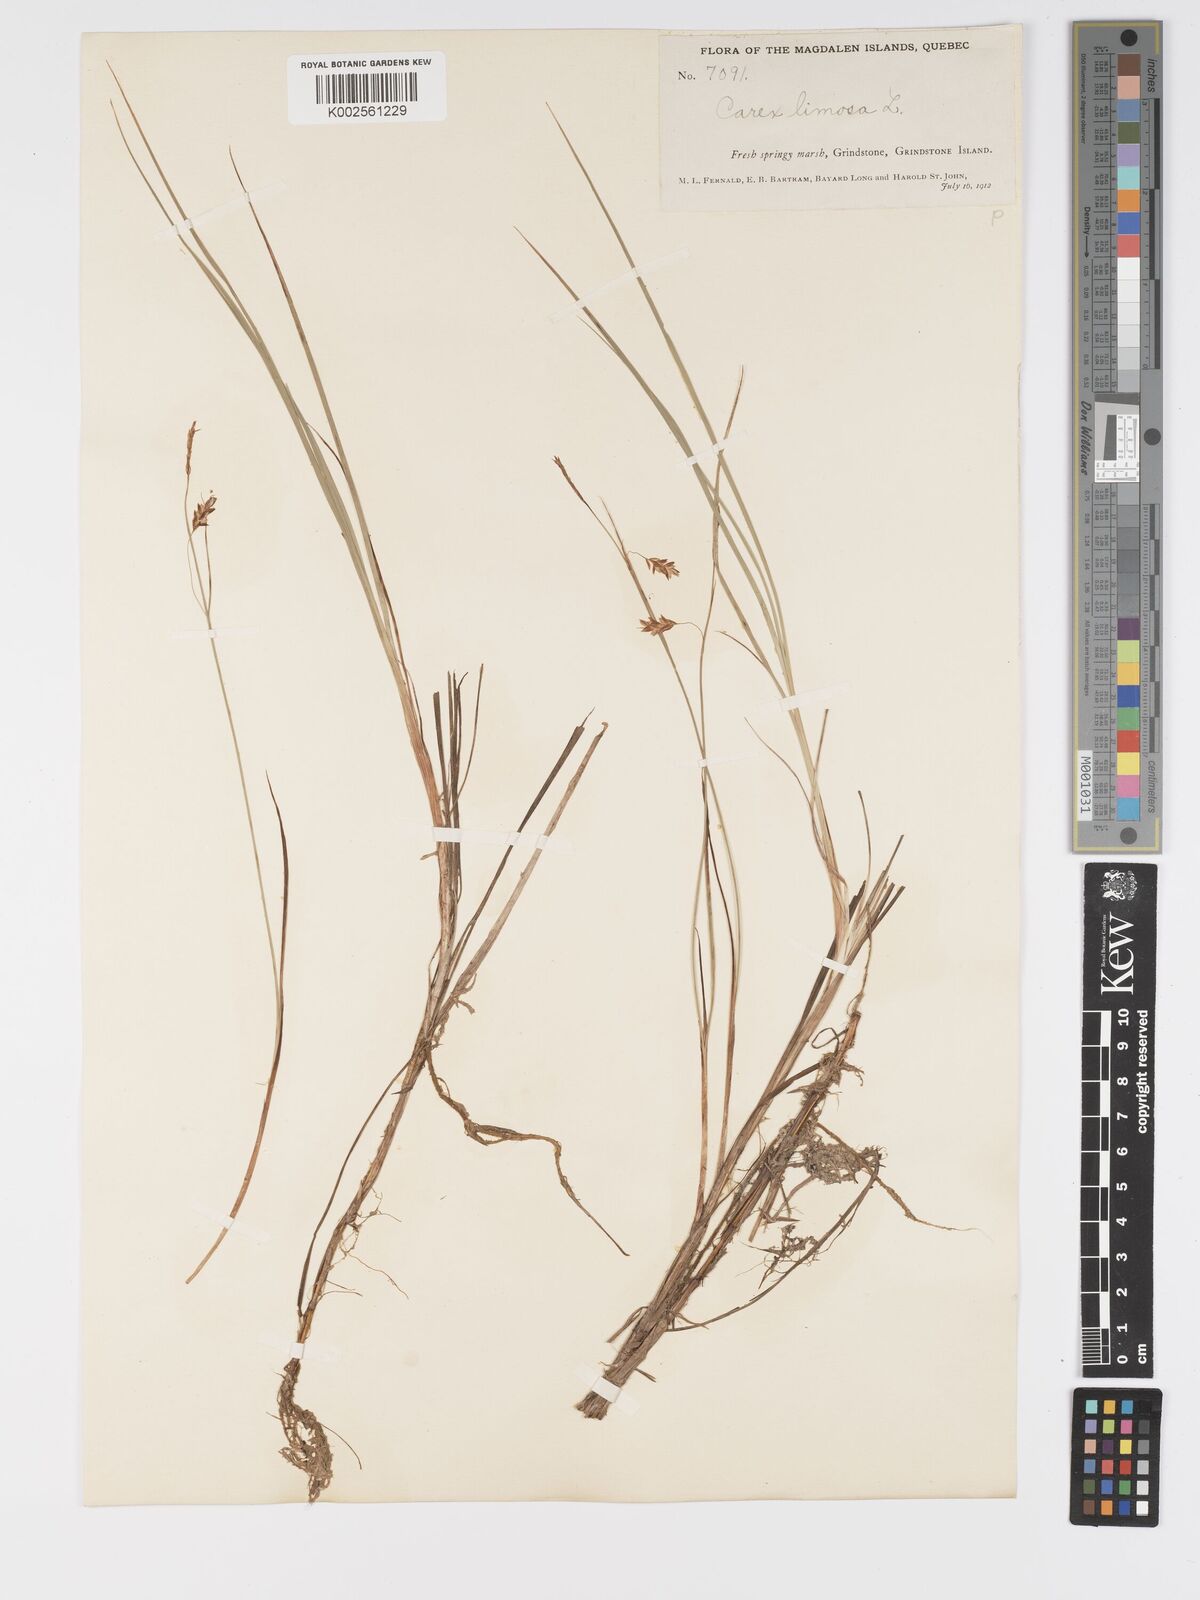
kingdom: Plantae
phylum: Tracheophyta
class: Liliopsida
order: Poales
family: Cyperaceae
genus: Carex
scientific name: Carex limosa
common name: Bog sedge
